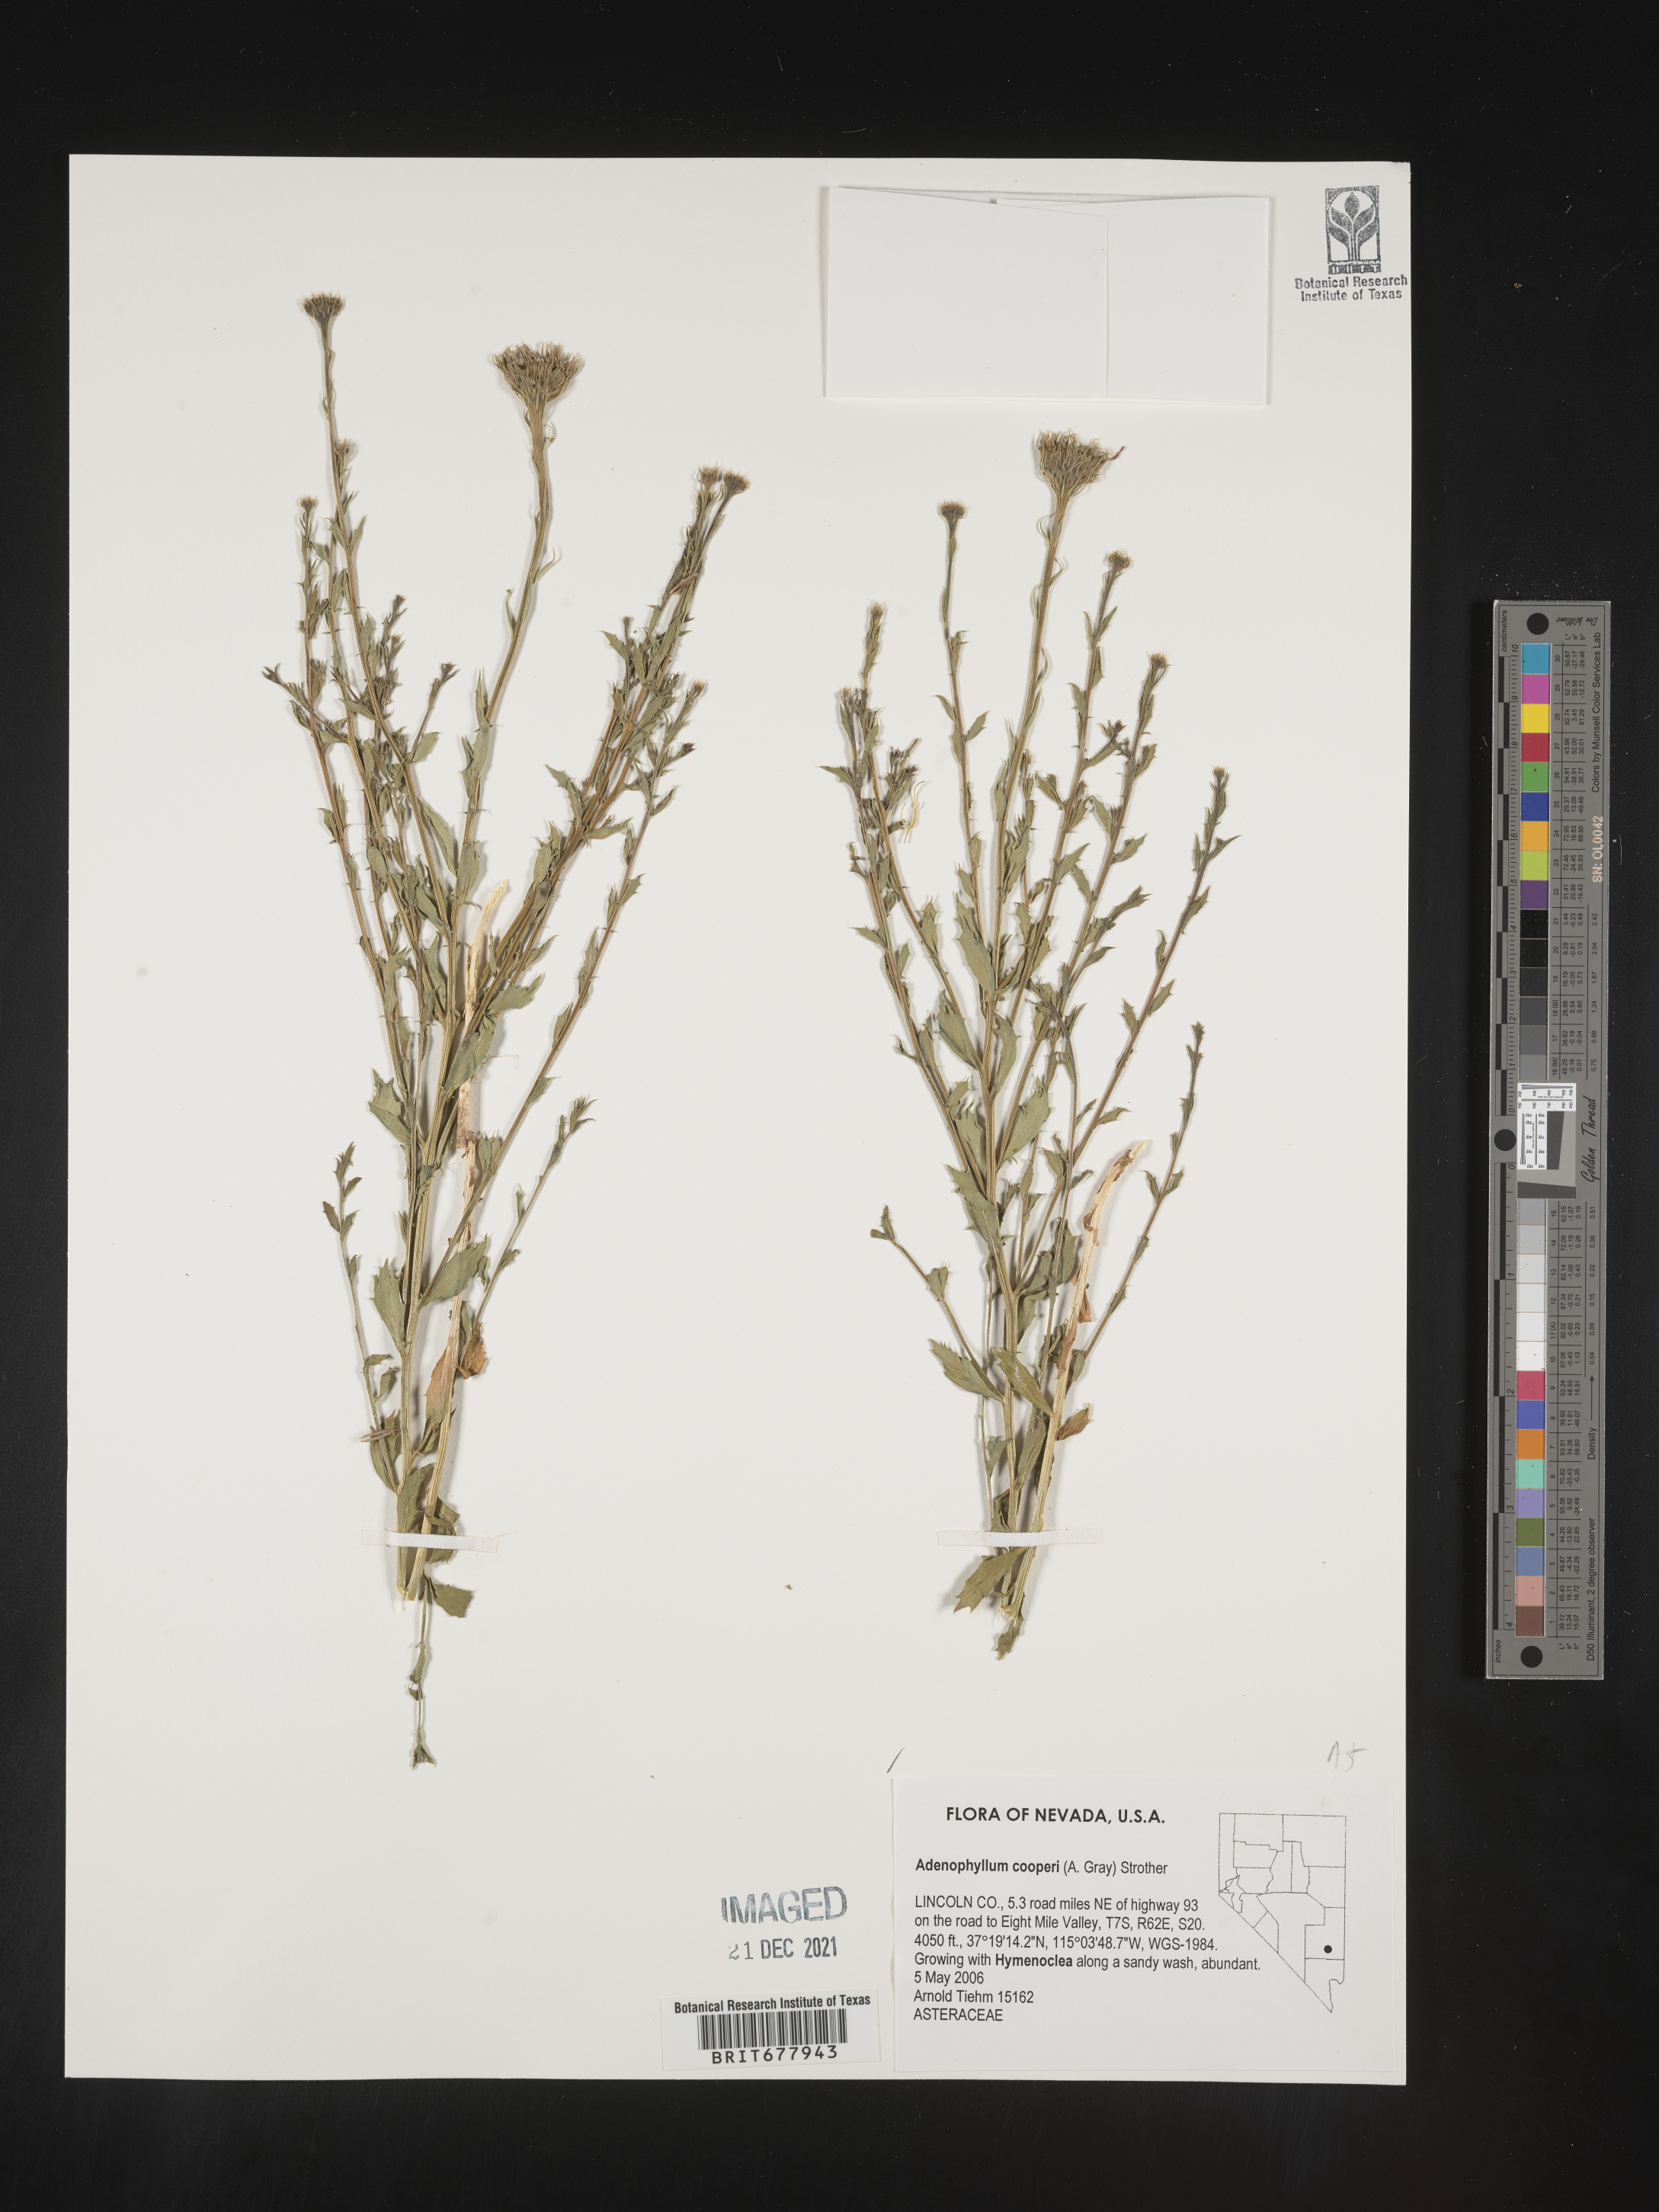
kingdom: Plantae
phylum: Tracheophyta
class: Magnoliopsida
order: Asterales
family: Asteraceae
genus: Adenophyllum
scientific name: Adenophyllum
